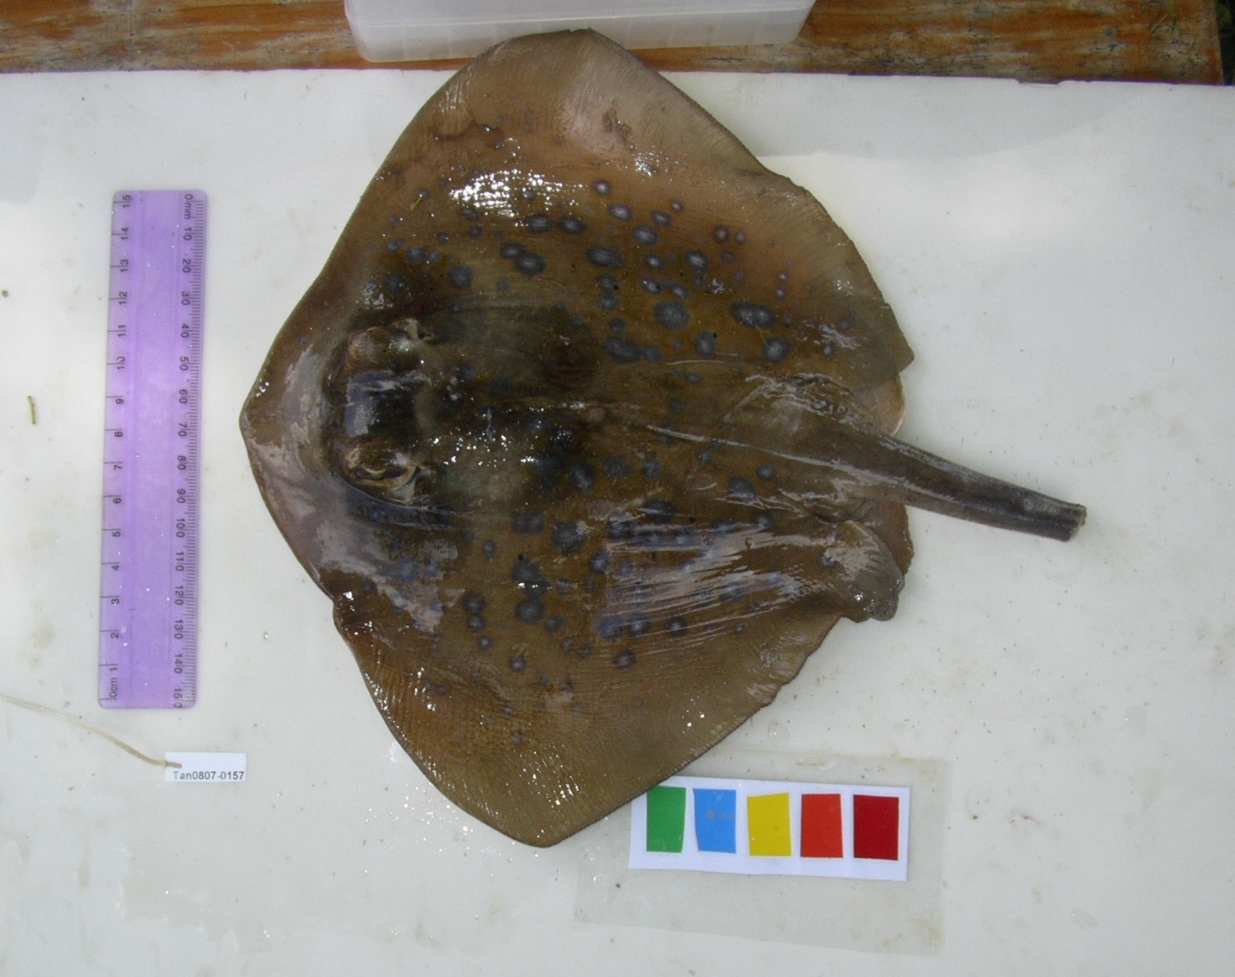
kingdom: Animalia
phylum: Chordata
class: Elasmobranchii
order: Myliobatiformes
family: Dasyatidae
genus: Neotrygon
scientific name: Neotrygon kuhlii
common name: Bluespotted stingray
